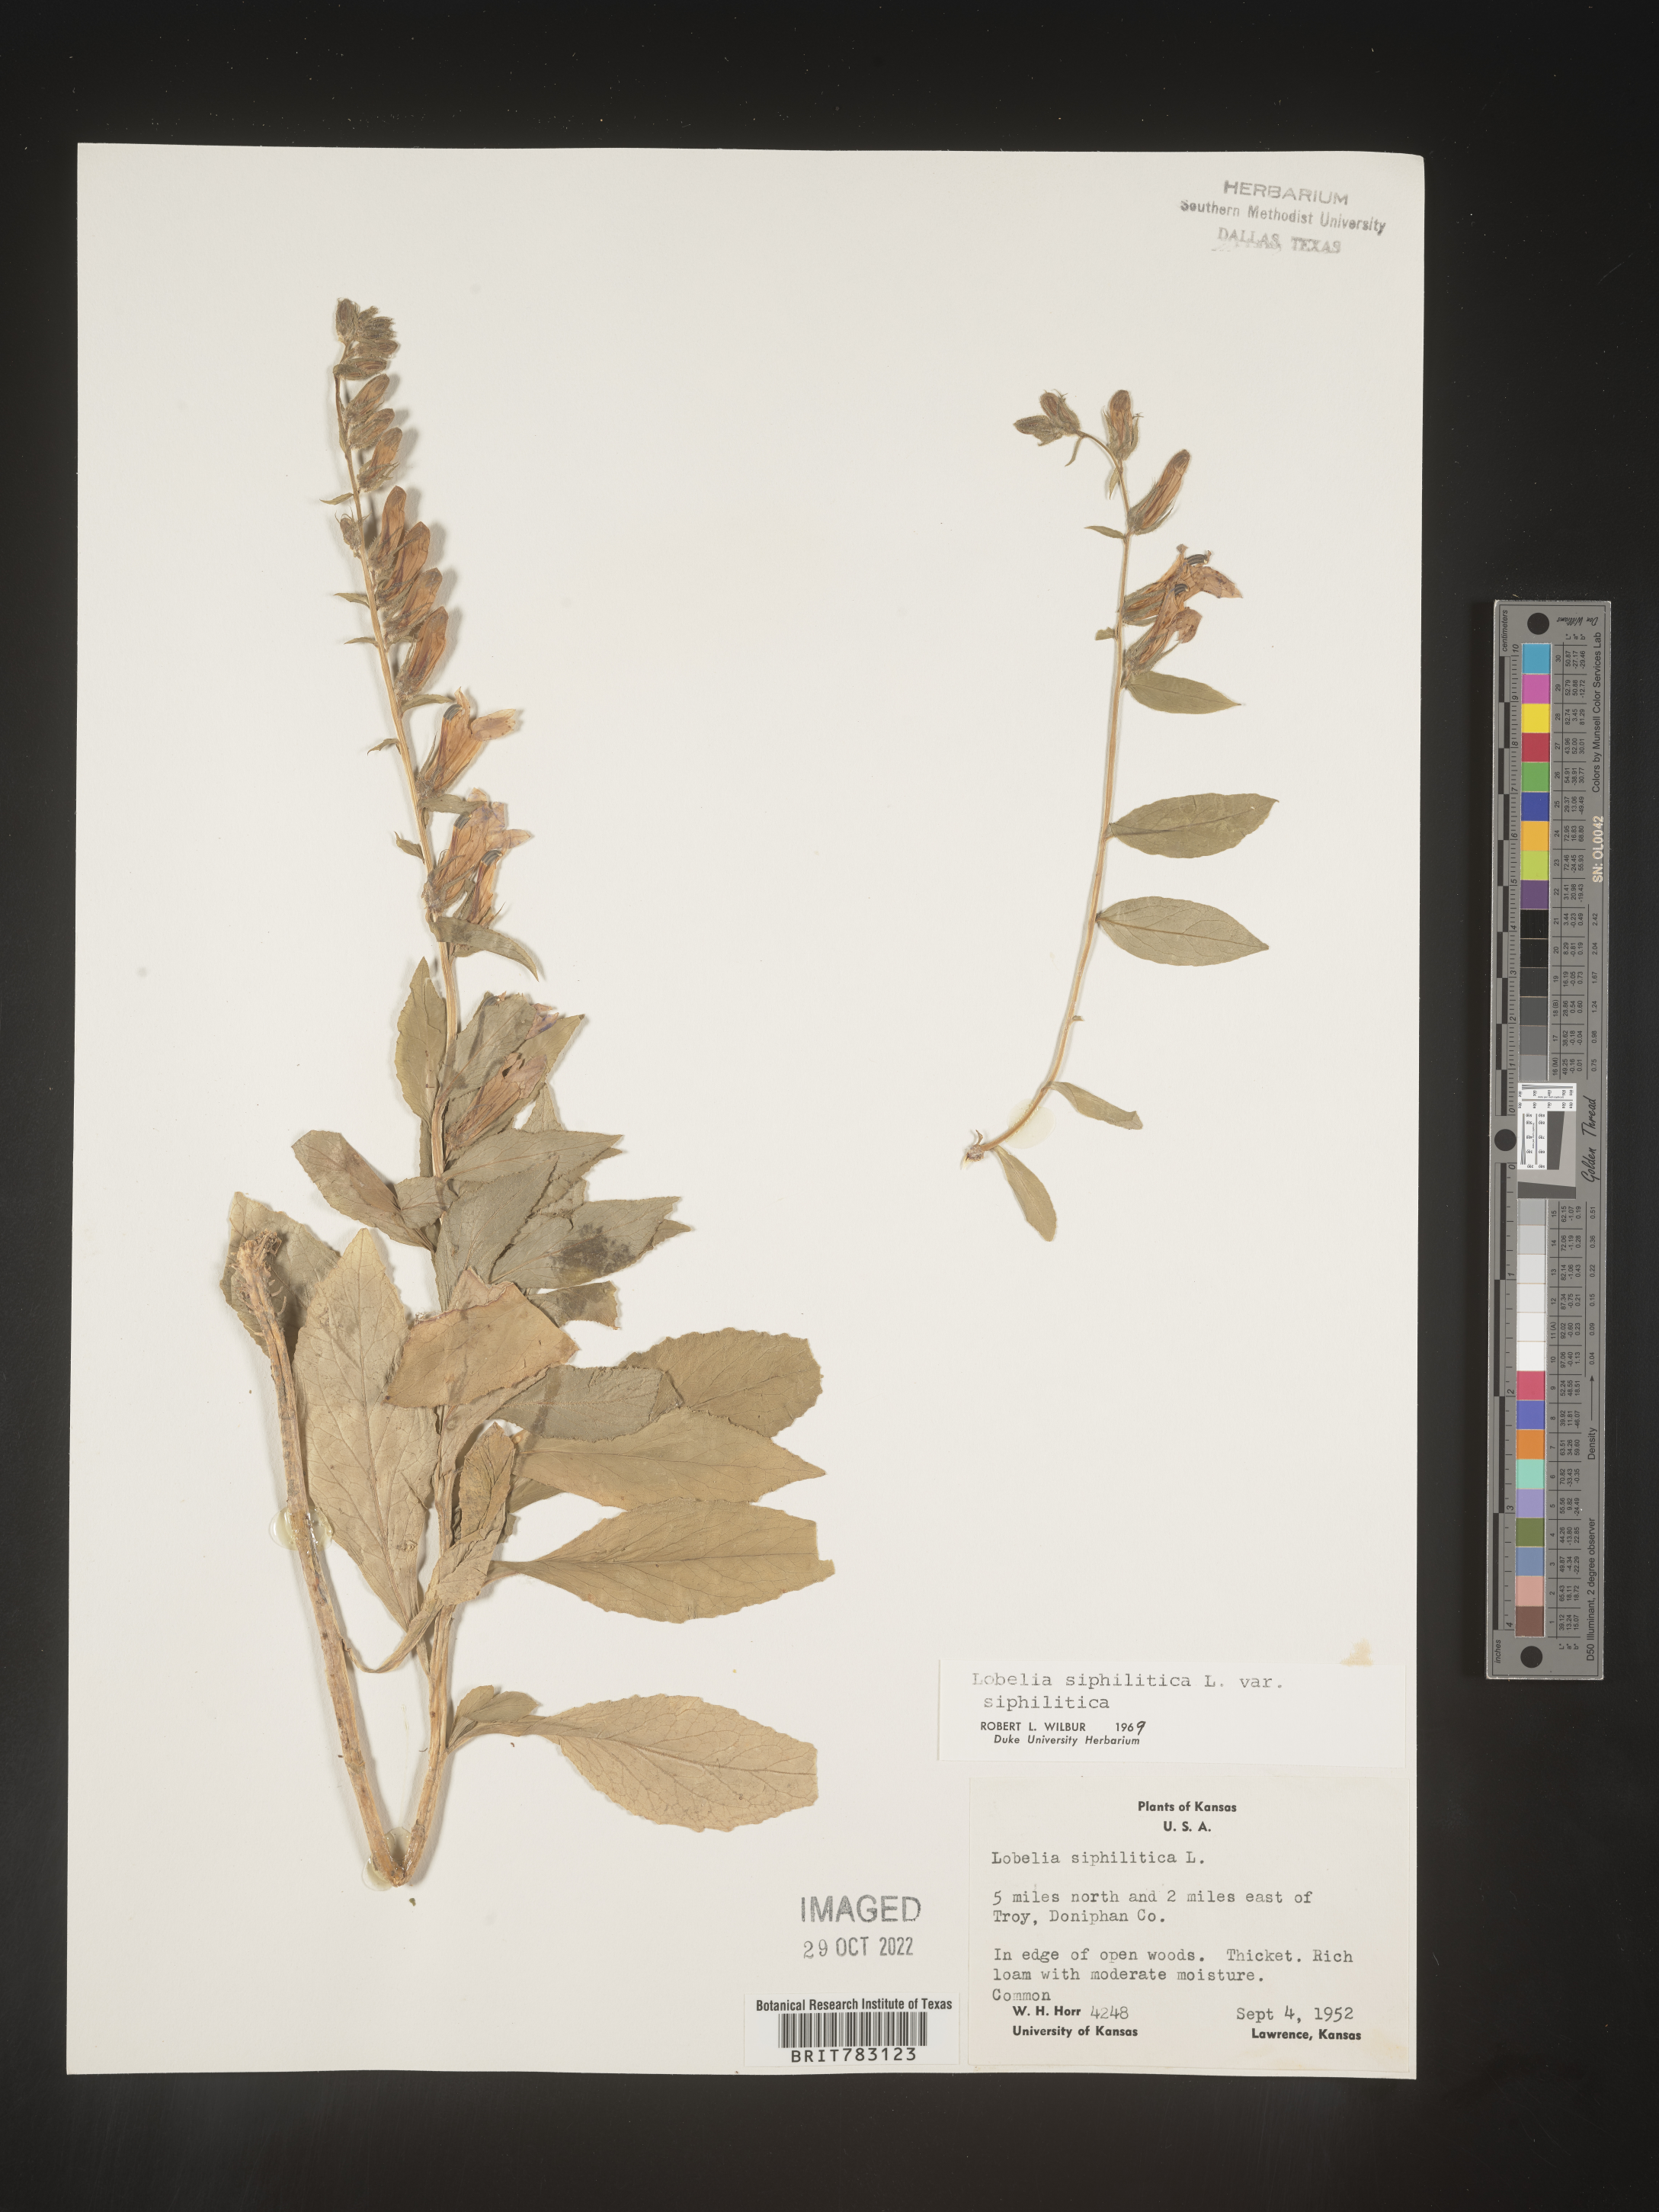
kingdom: Plantae
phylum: Tracheophyta
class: Magnoliopsida
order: Asterales
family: Campanulaceae
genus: Lobelia
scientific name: Lobelia siphilitica
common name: Great lobelia
